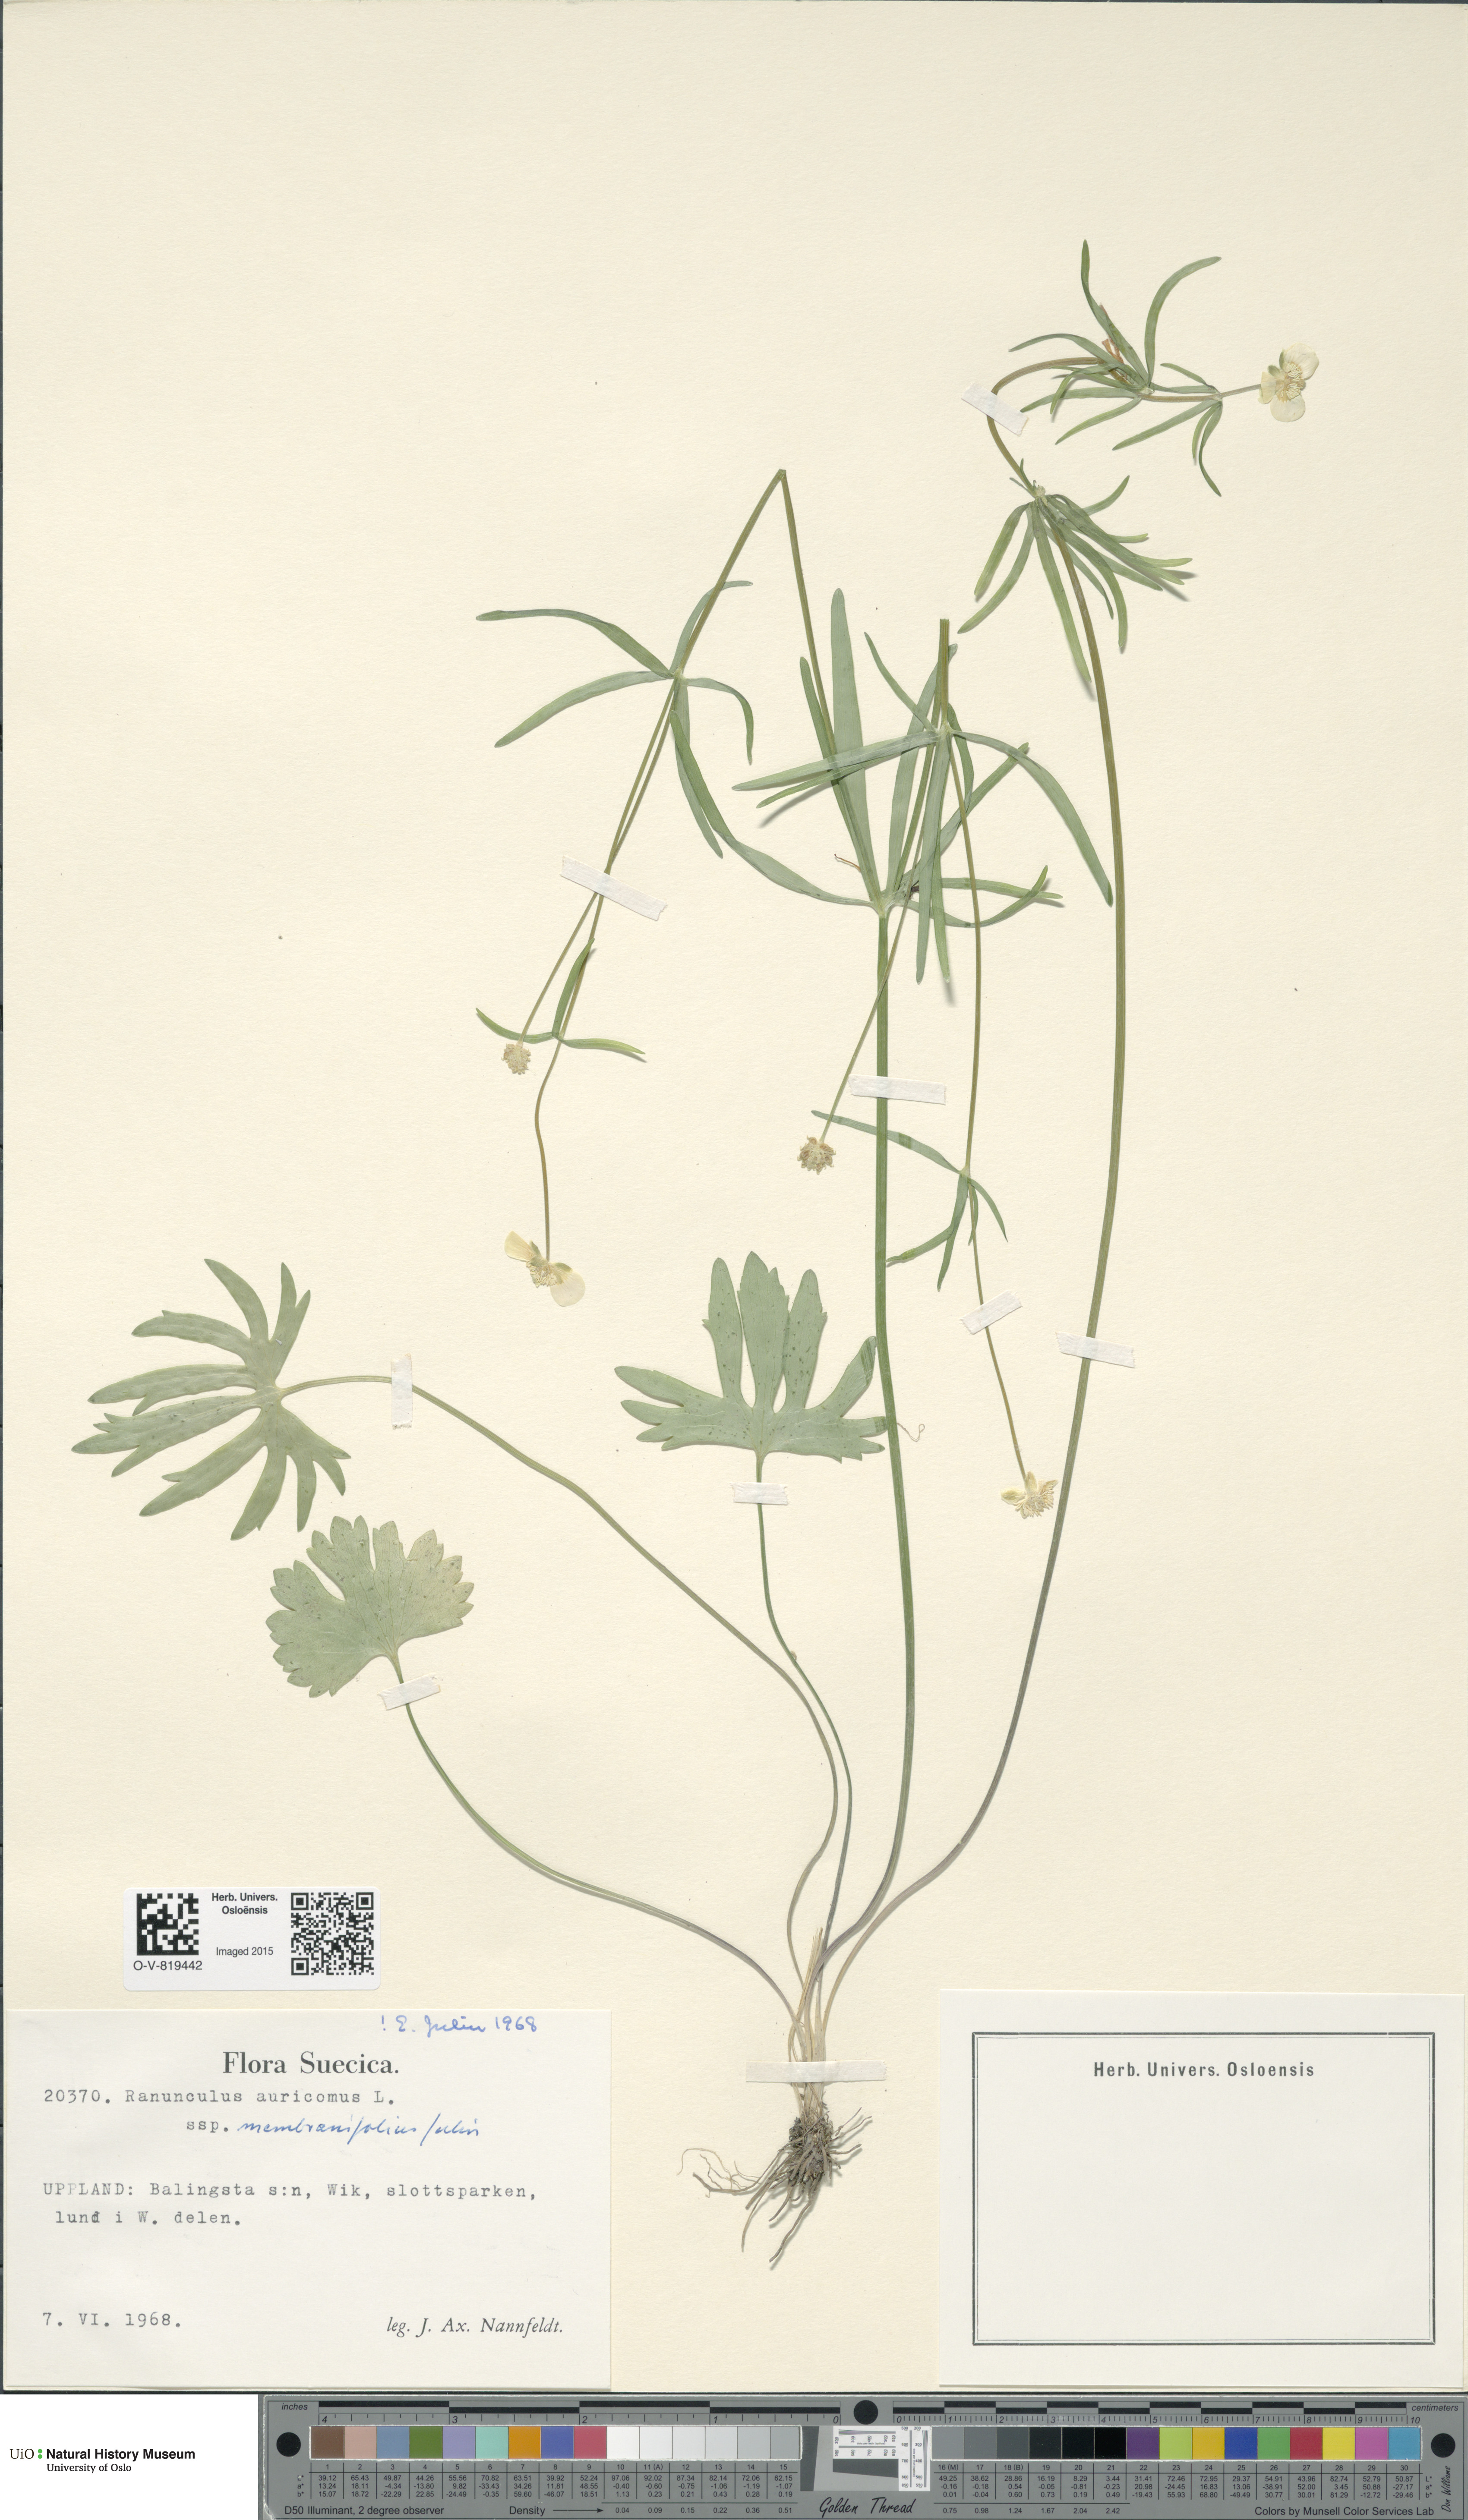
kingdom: Plantae
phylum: Tracheophyta
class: Magnoliopsida
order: Ranunculales
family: Ranunculaceae
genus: Ranunculus
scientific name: Ranunculus pergamentaceus
